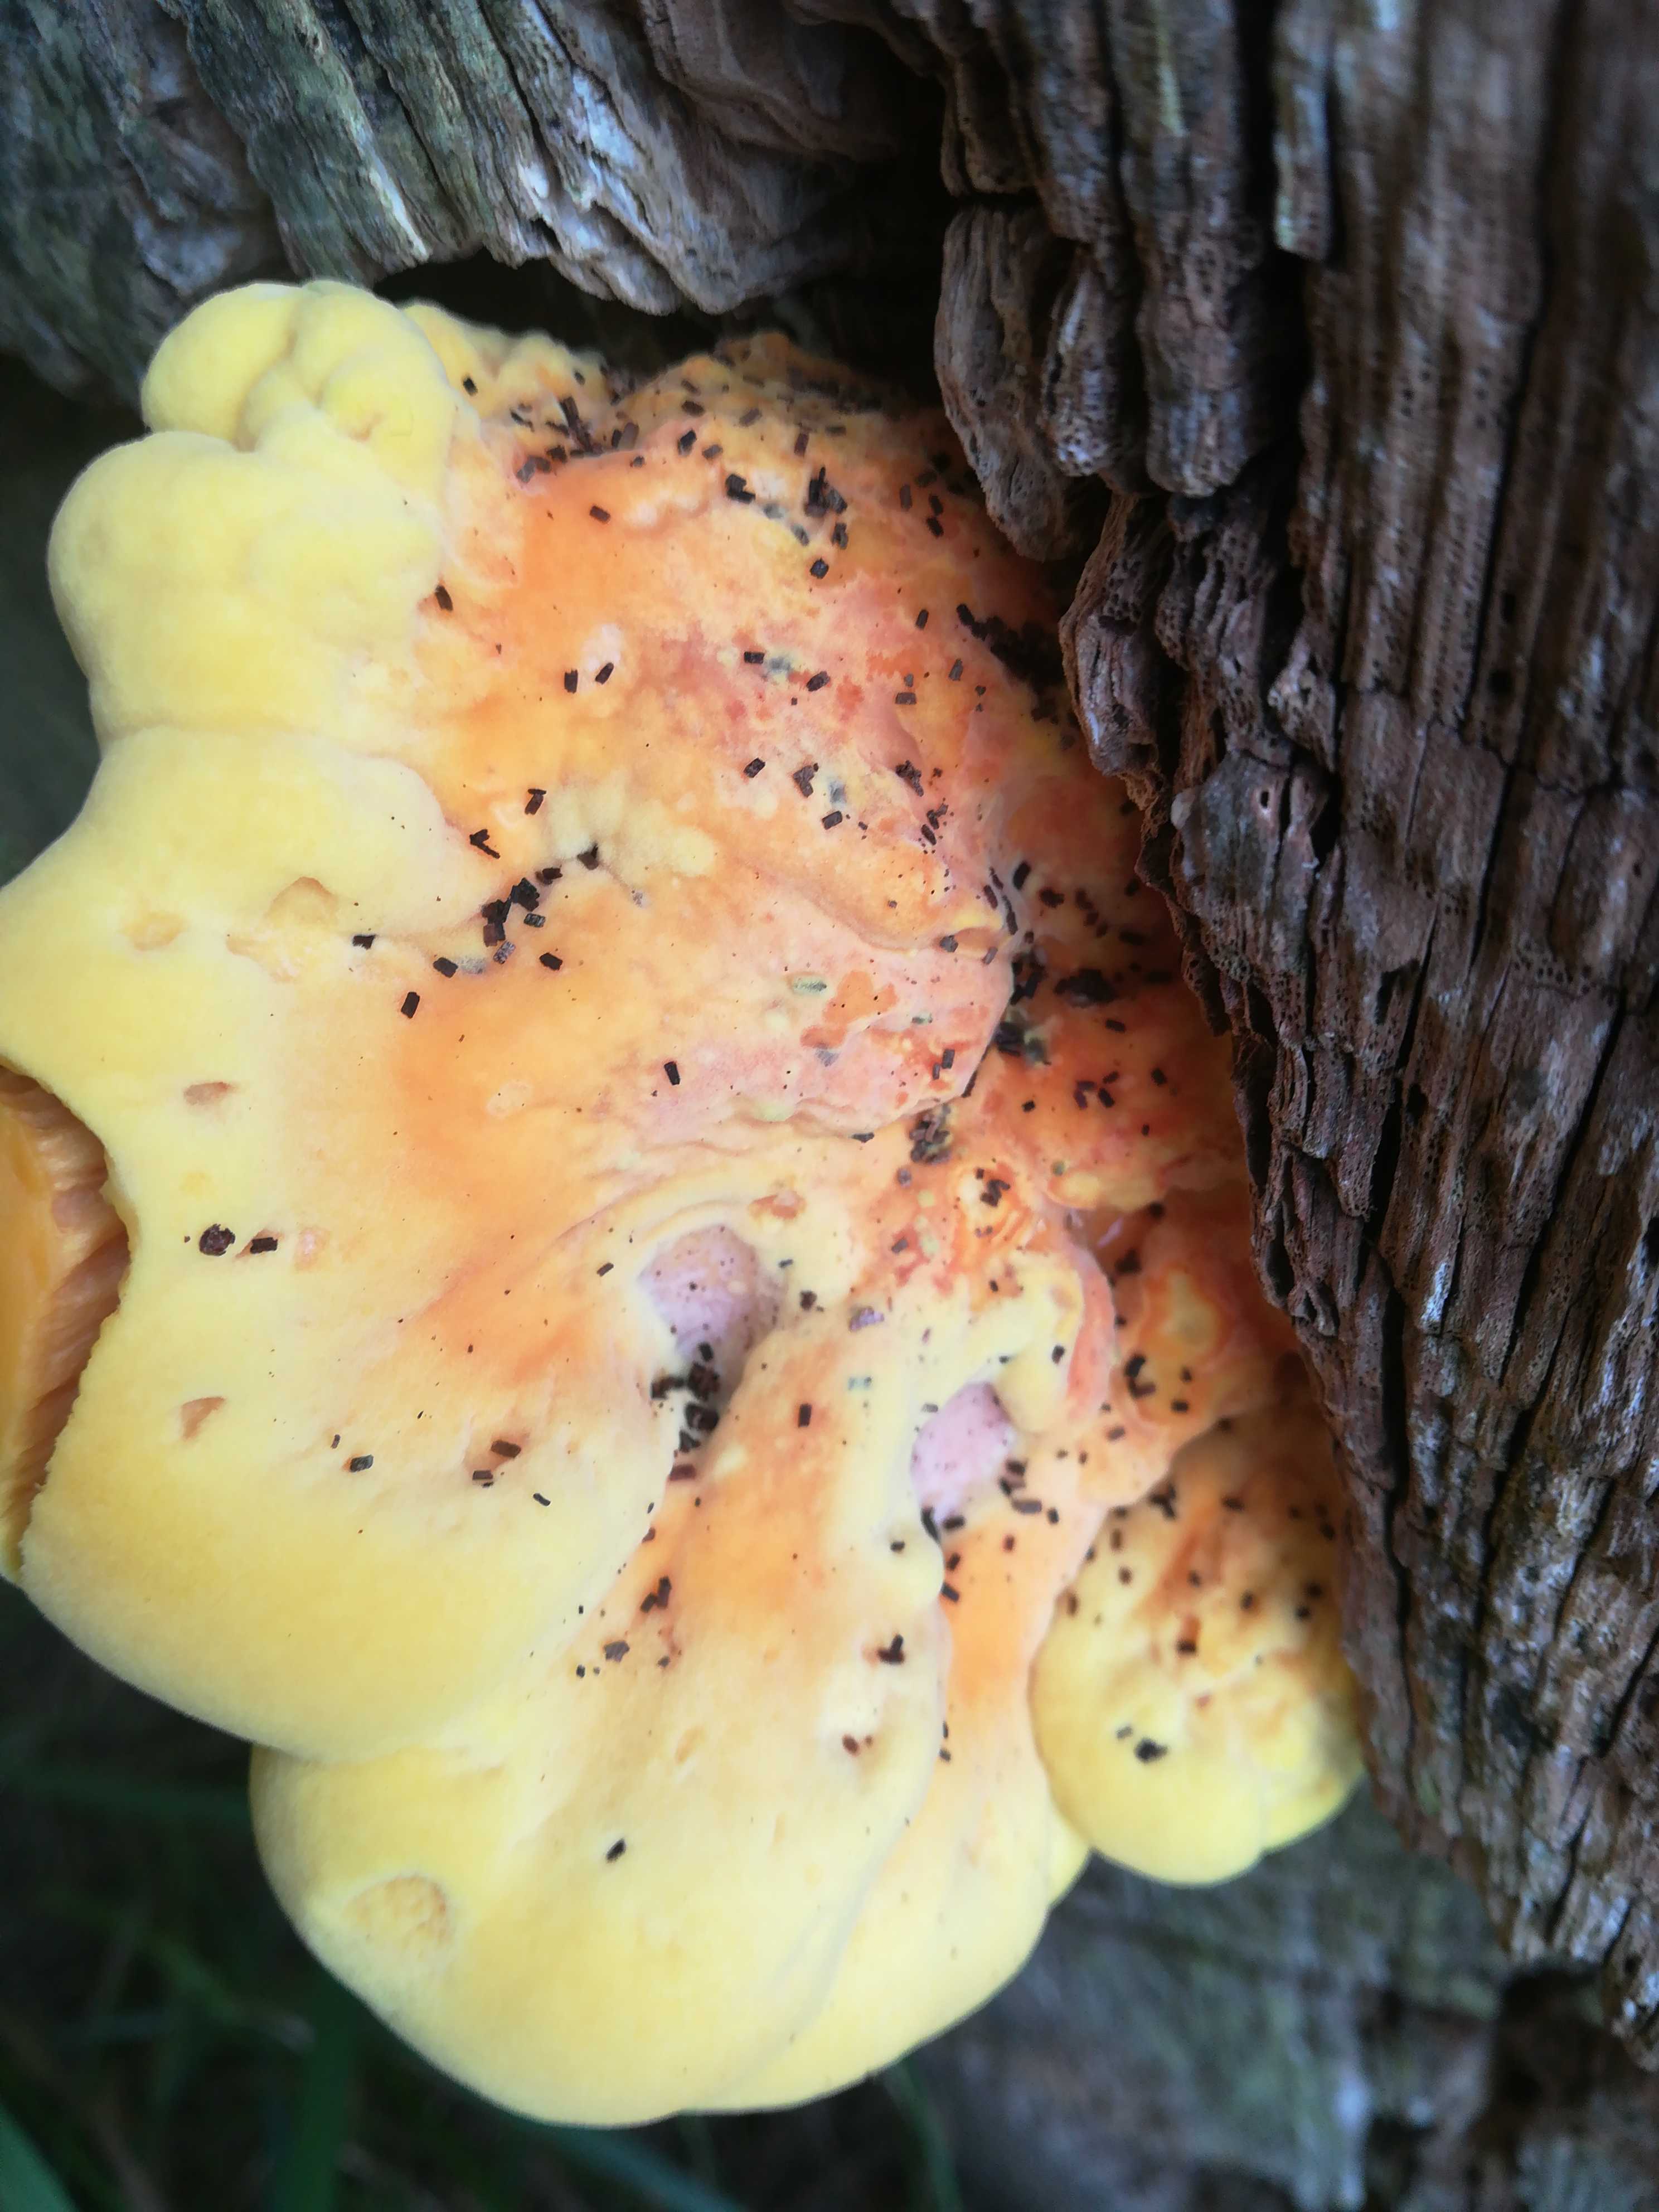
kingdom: Fungi
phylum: Basidiomycota
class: Agaricomycetes
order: Polyporales
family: Laetiporaceae
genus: Laetiporus
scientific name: Laetiporus sulphureus
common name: svovlporesvamp
